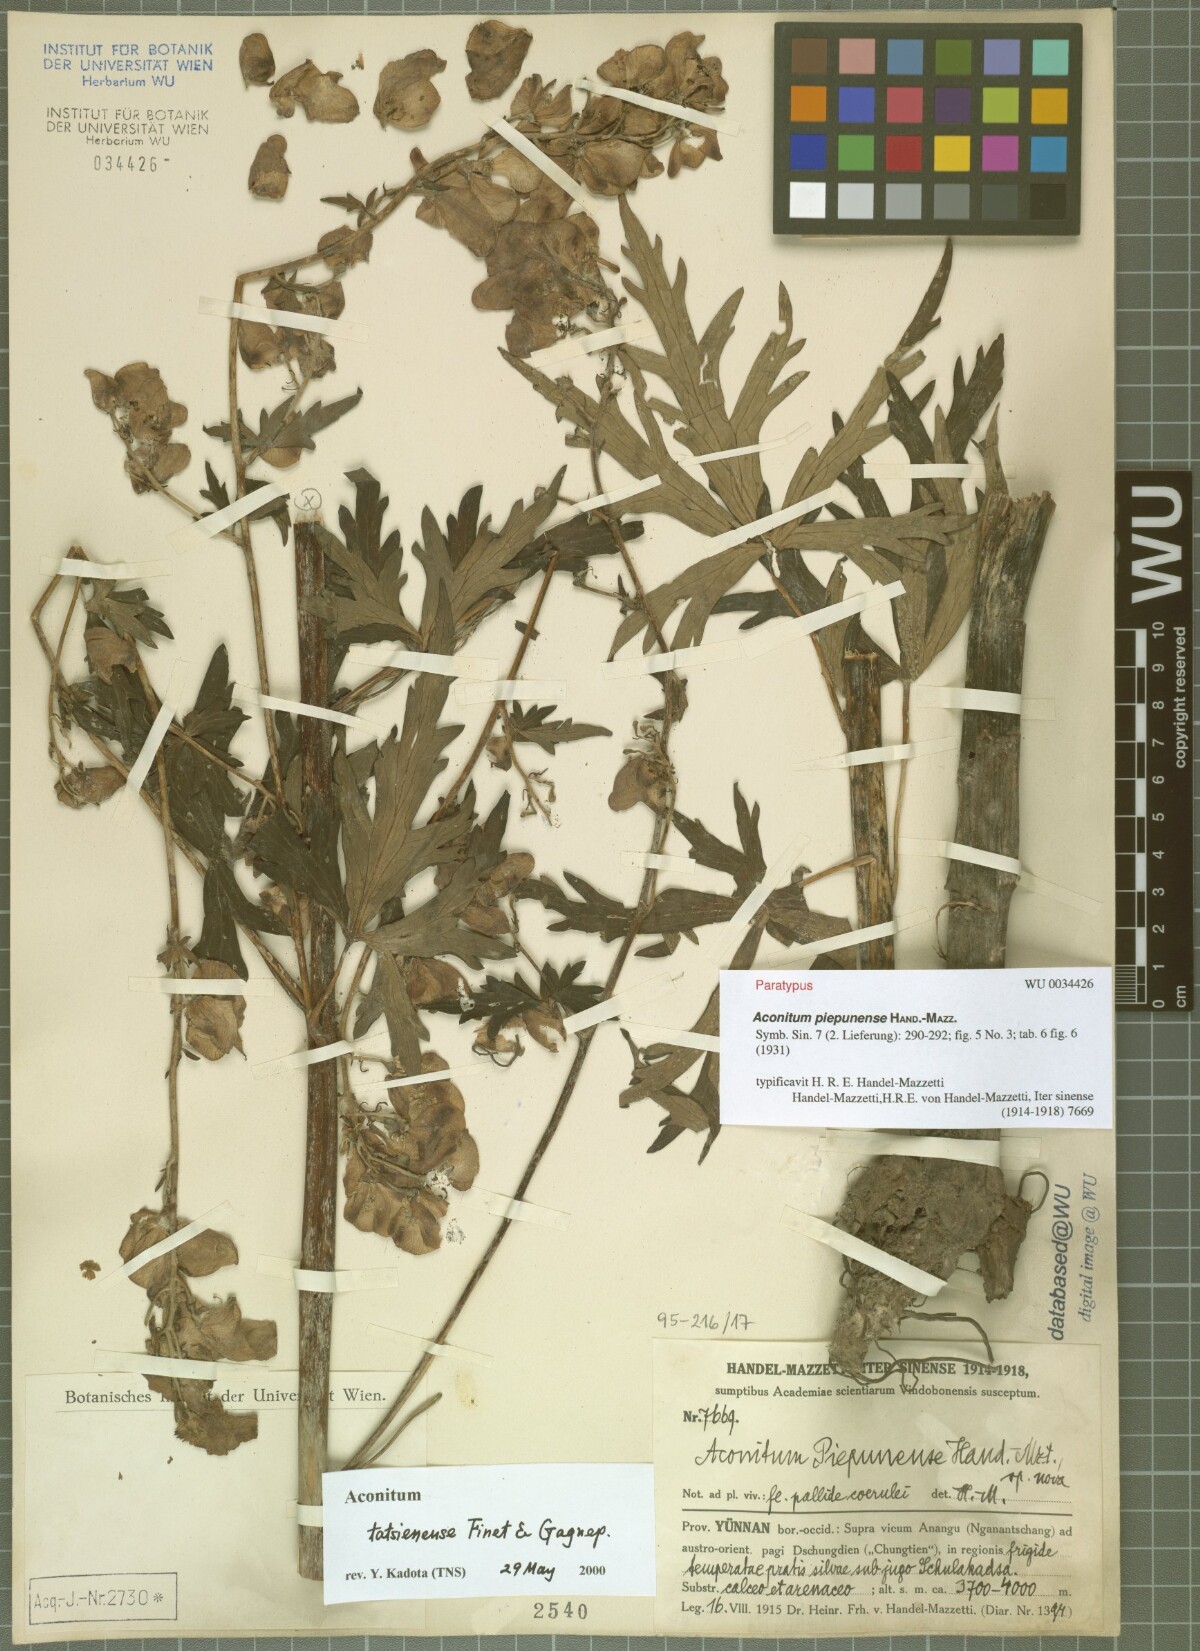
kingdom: Plantae
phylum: Tracheophyta
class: Magnoliopsida
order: Ranunculales
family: Ranunculaceae
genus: Aconitum
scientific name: Aconitum piepunense
